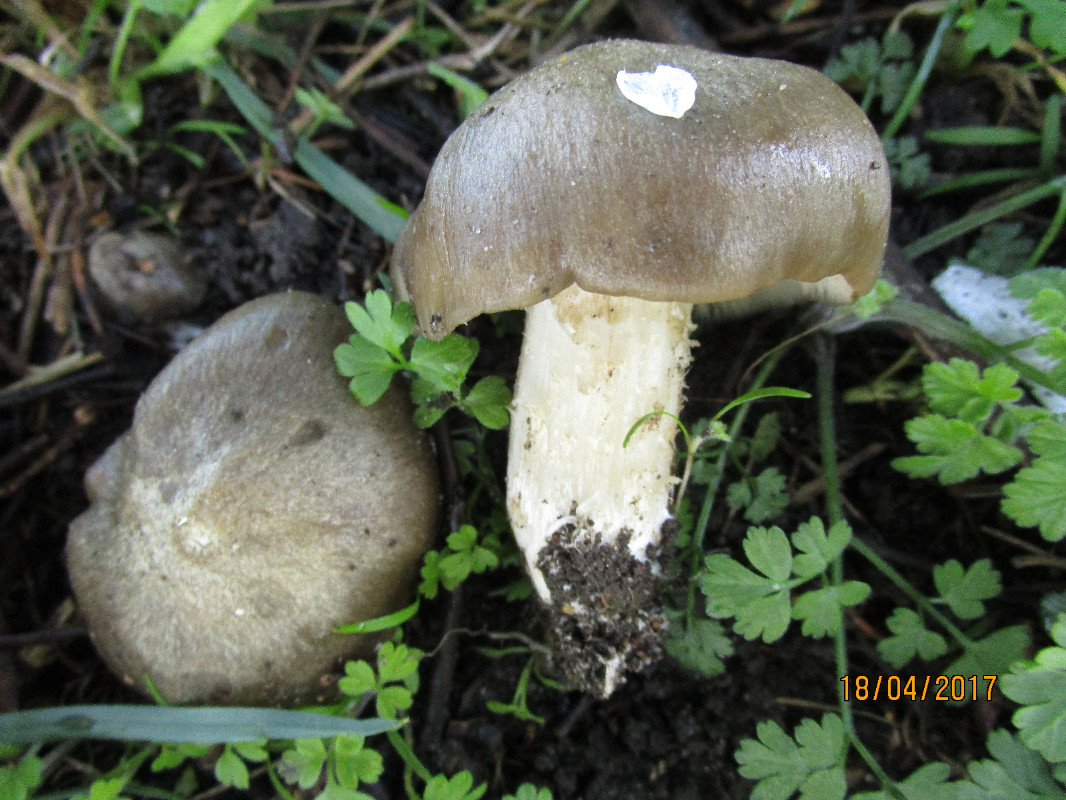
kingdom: Fungi
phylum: Basidiomycota
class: Agaricomycetes
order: Agaricales
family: Entolomataceae
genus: Entoloma
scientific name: Entoloma clypeatum
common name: flammet rødblad
